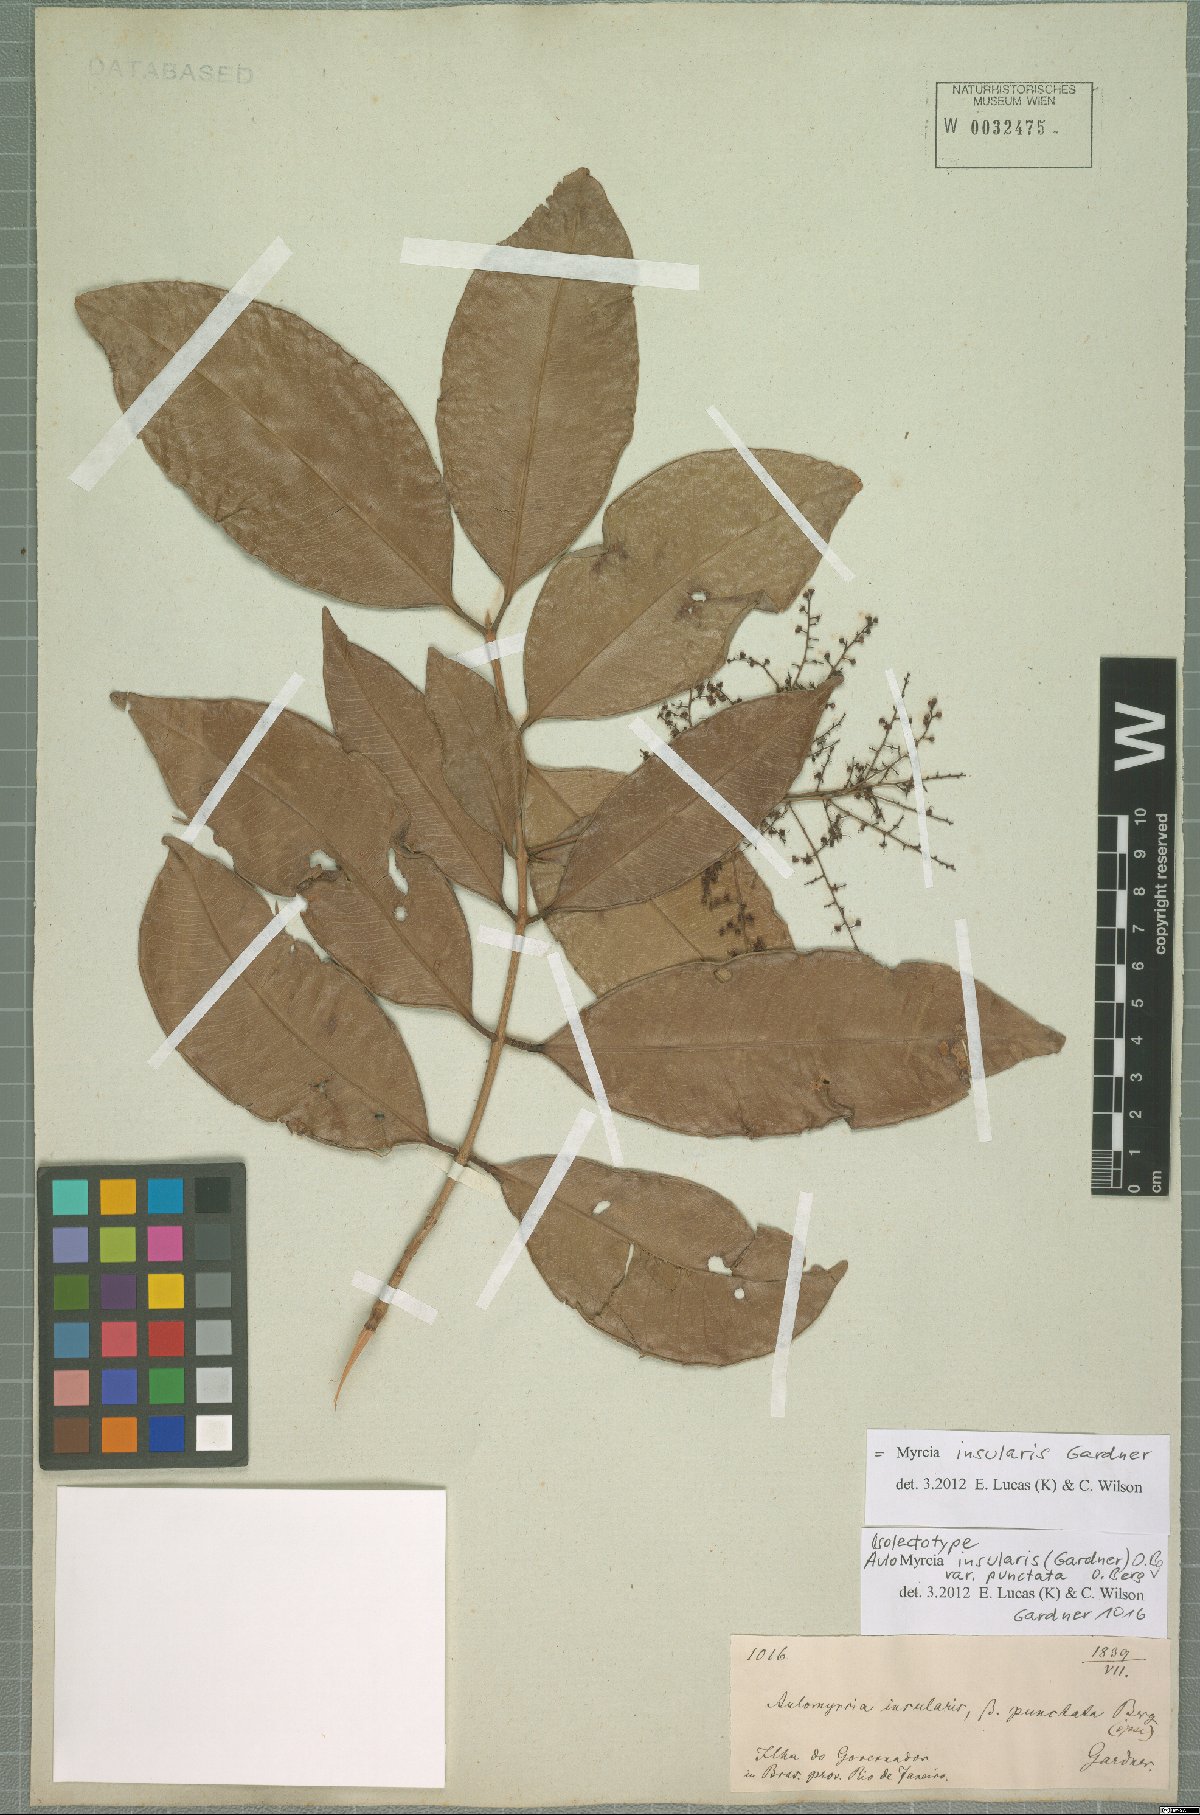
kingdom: Plantae
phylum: Tracheophyta
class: Magnoliopsida
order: Myrtales
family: Myrtaceae
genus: Myrcia
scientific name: Myrcia insularis
